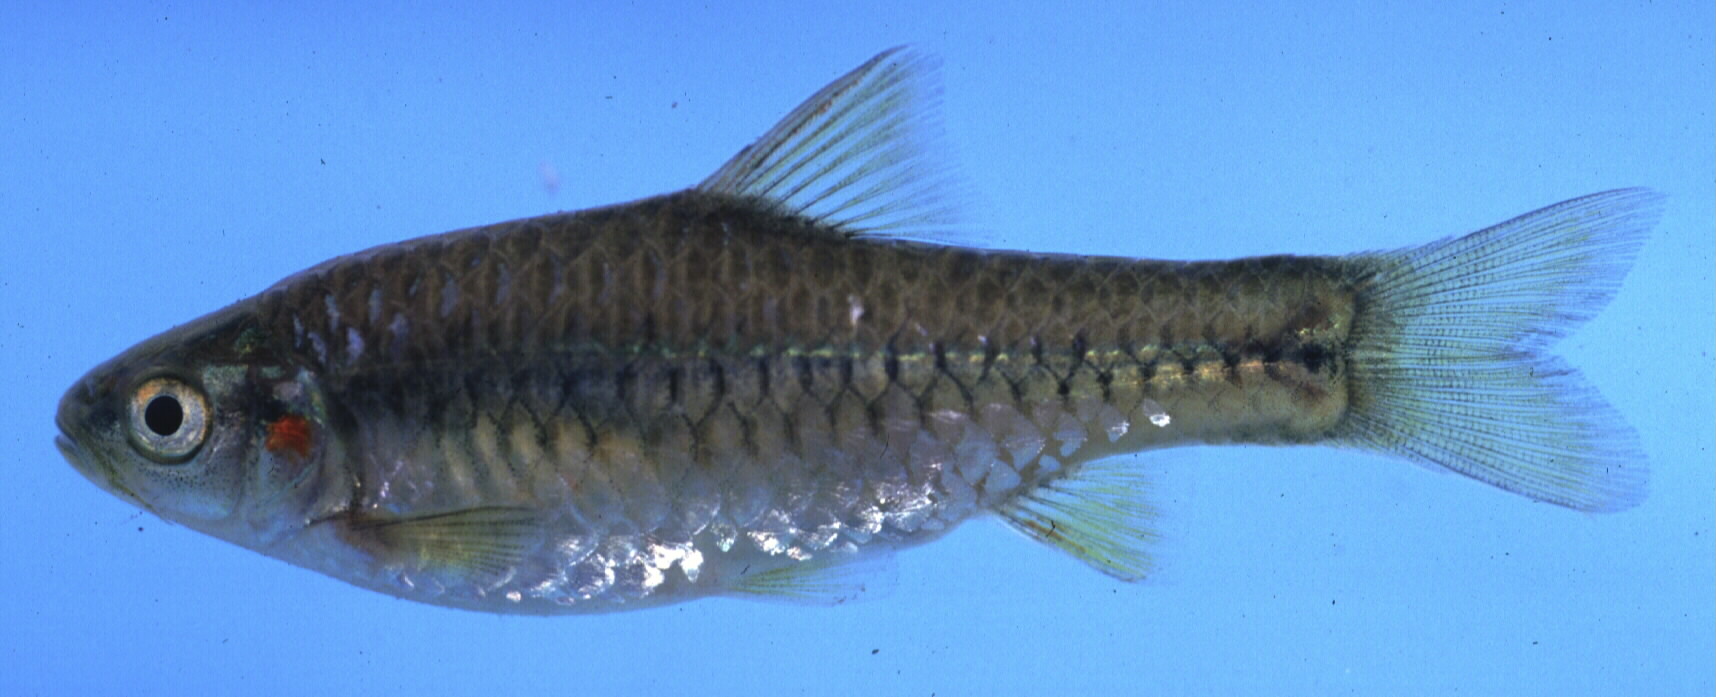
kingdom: Animalia
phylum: Chordata
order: Cypriniformes
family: Cyprinidae
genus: Enteromius
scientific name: Enteromius kerstenii
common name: Redspot barb
